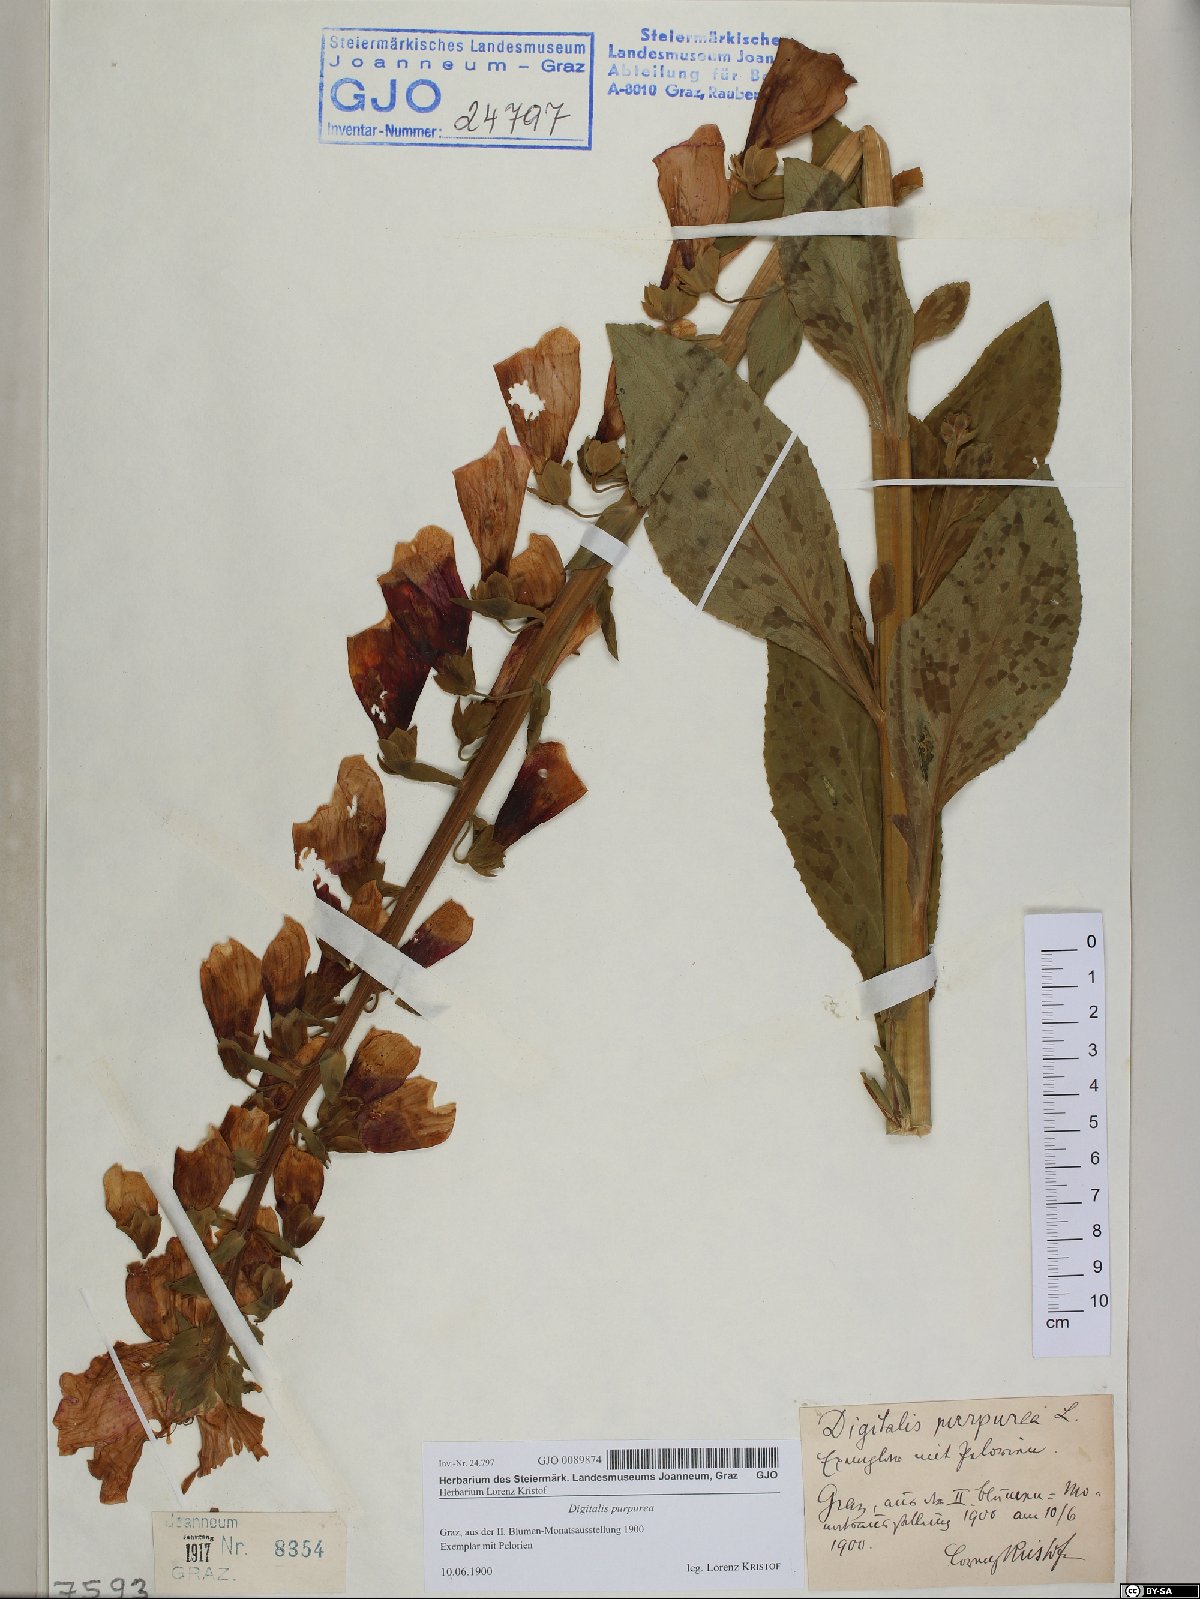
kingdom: Plantae
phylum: Tracheophyta
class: Magnoliopsida
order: Lamiales
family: Plantaginaceae
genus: Digitalis
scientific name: Digitalis purpurea
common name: Foxglove
